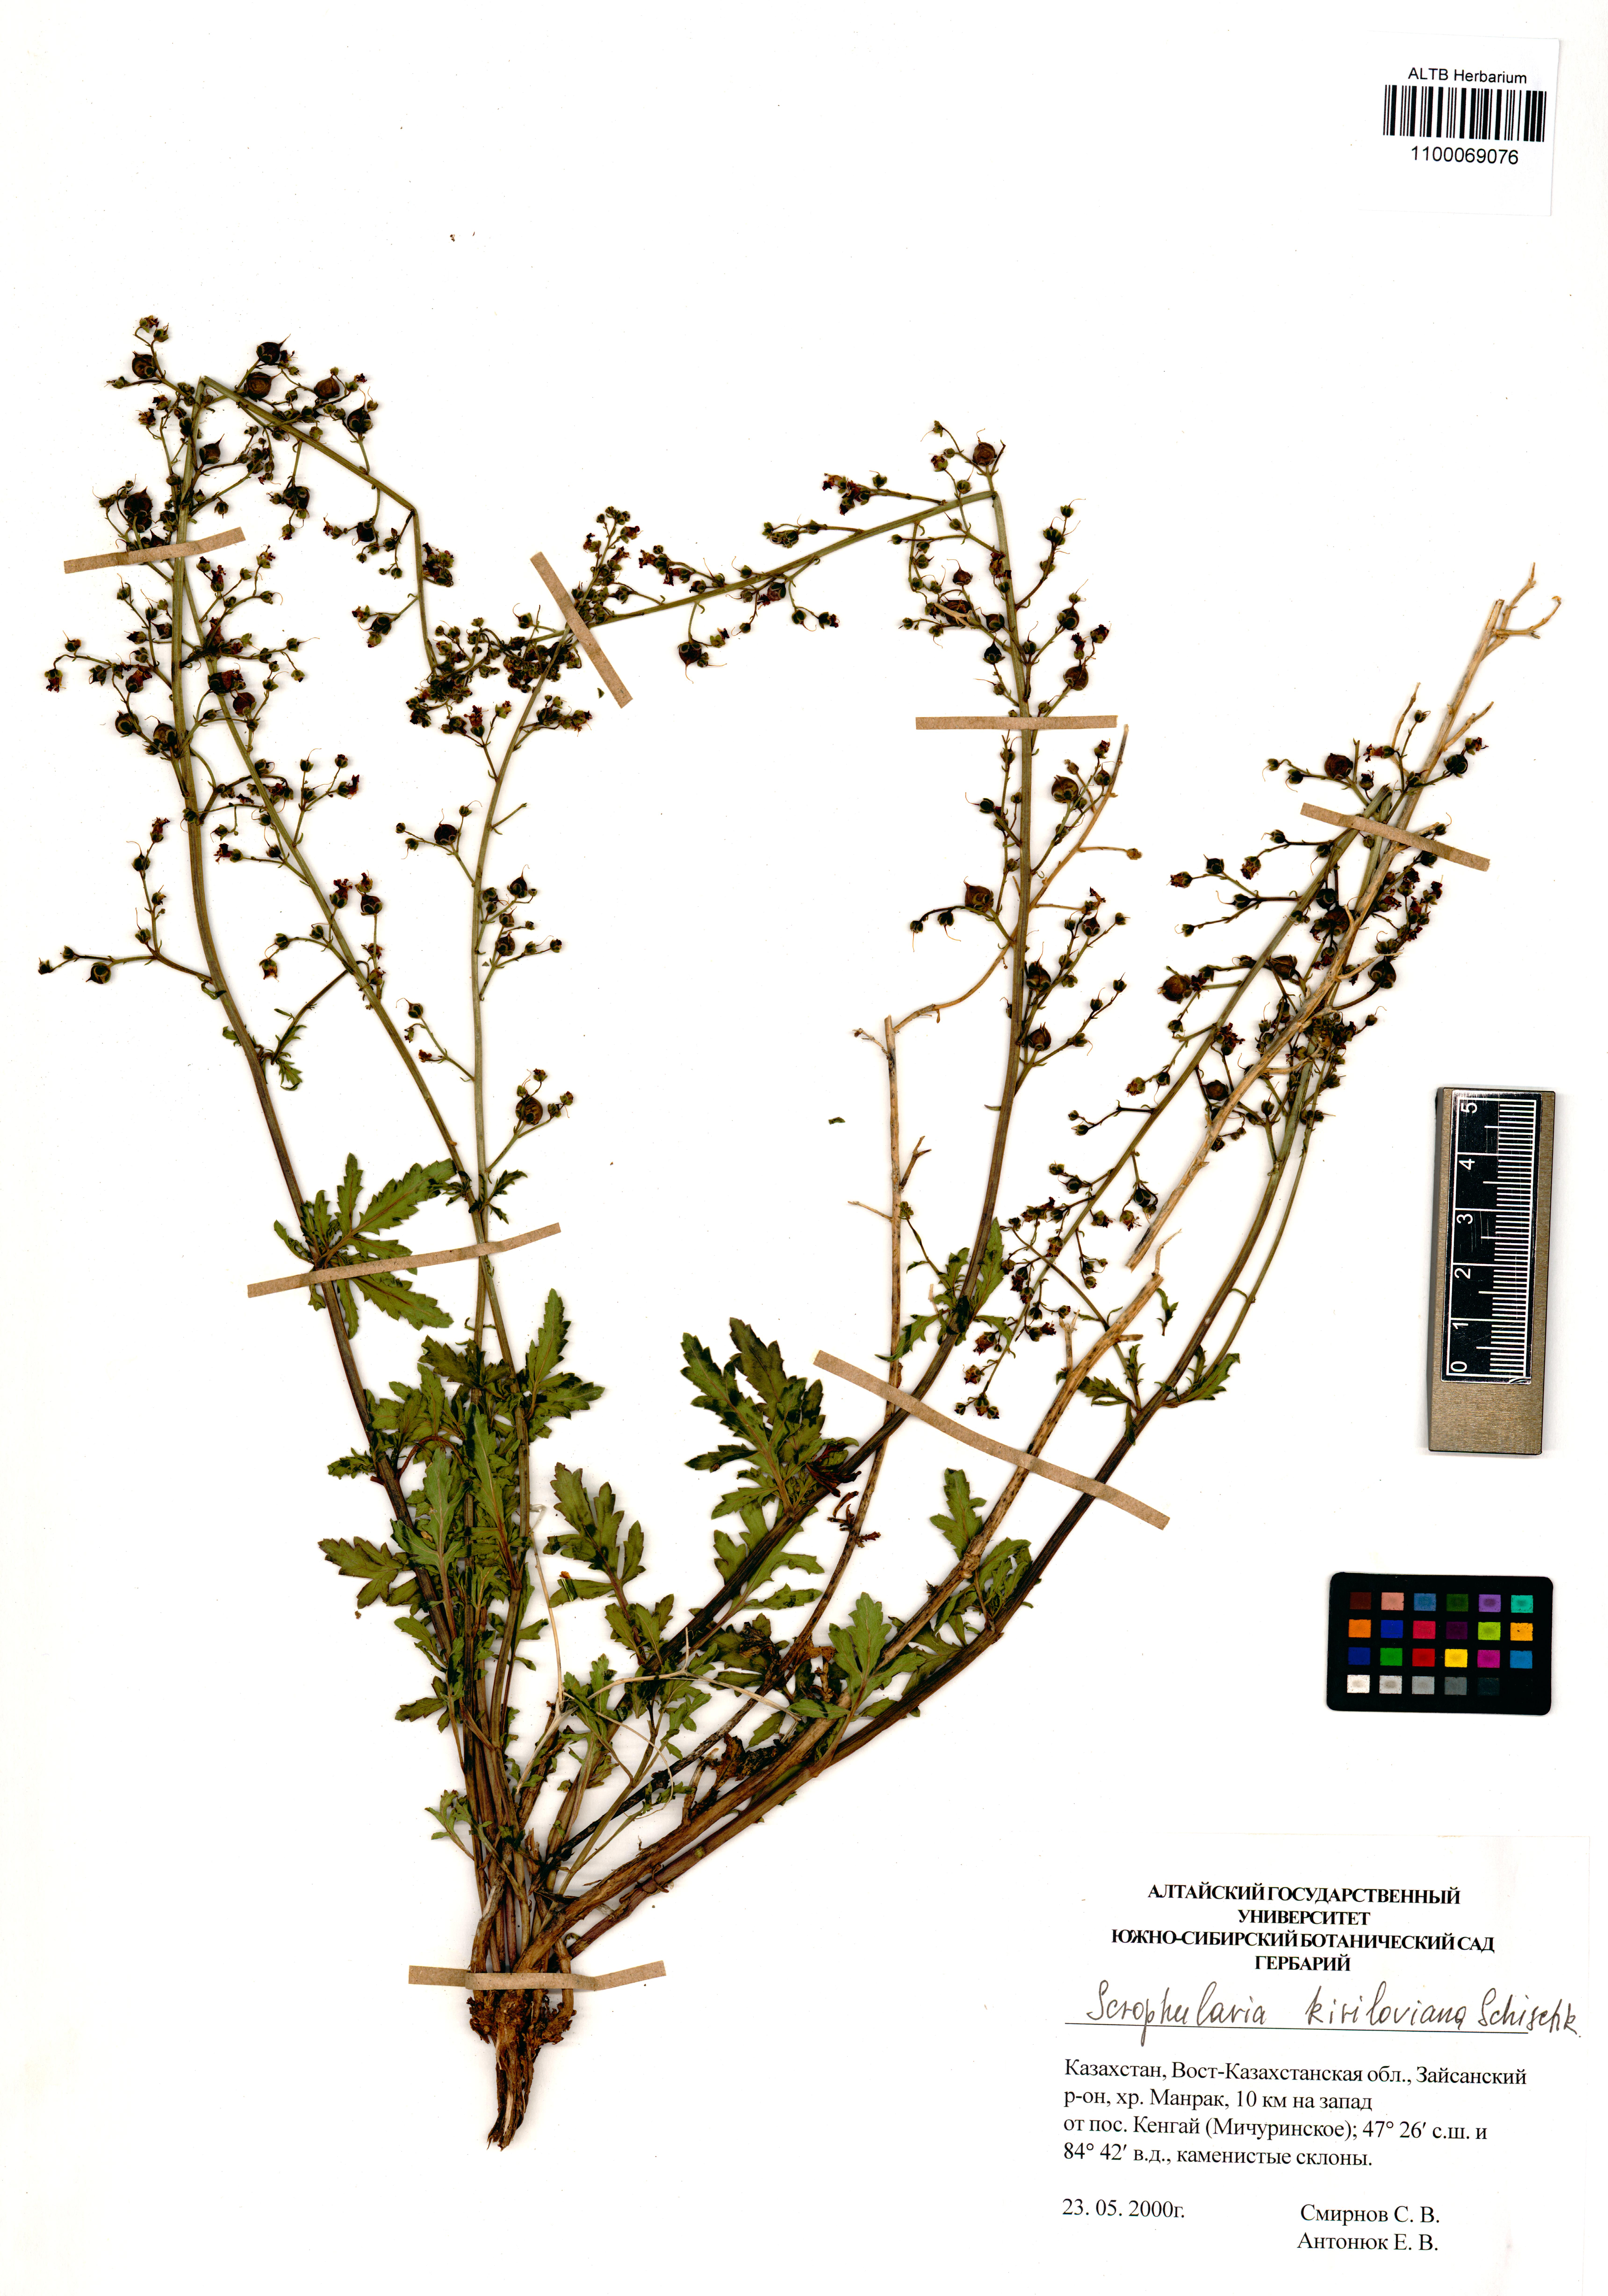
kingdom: Plantae
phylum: Tracheophyta
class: Magnoliopsida
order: Lamiales
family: Scrophulariaceae
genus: Scrophularia
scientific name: Scrophularia kiriloviana
